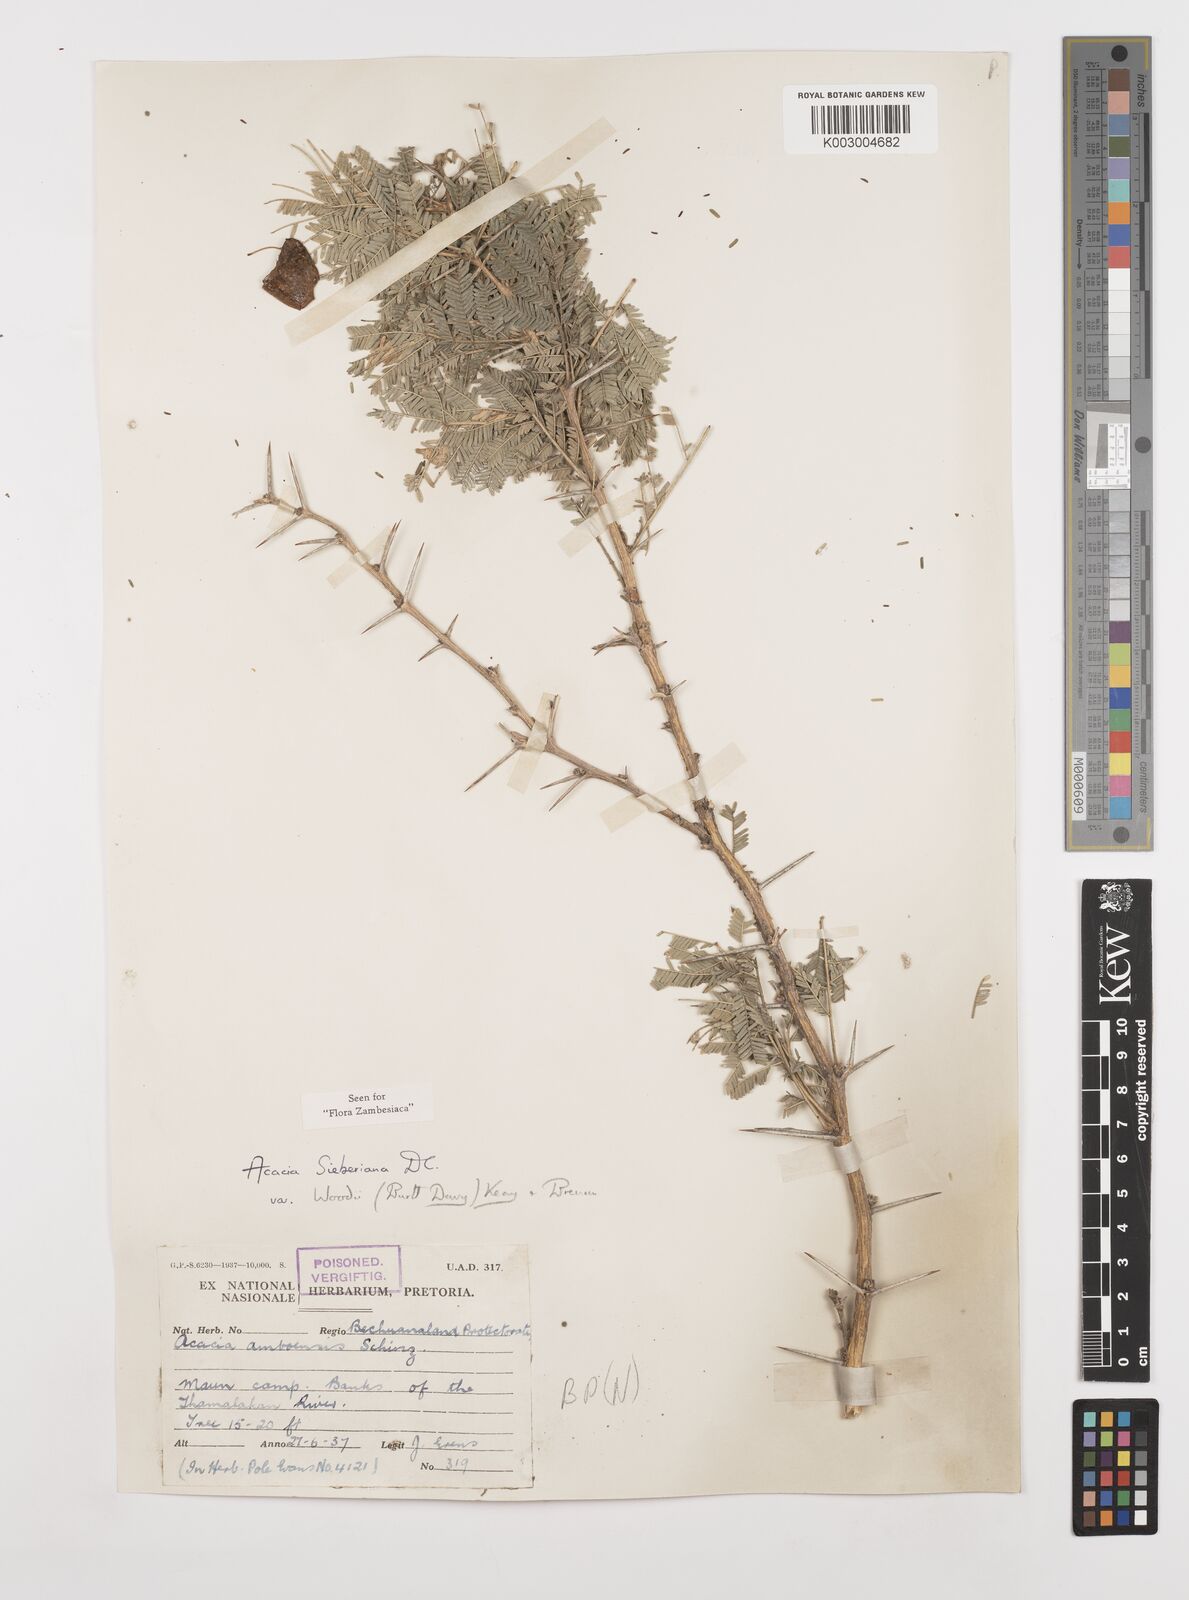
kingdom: Plantae
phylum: Tracheophyta
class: Magnoliopsida
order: Fabales
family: Fabaceae
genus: Vachellia
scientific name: Vachellia sieberiana
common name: Flat-topped thorn
